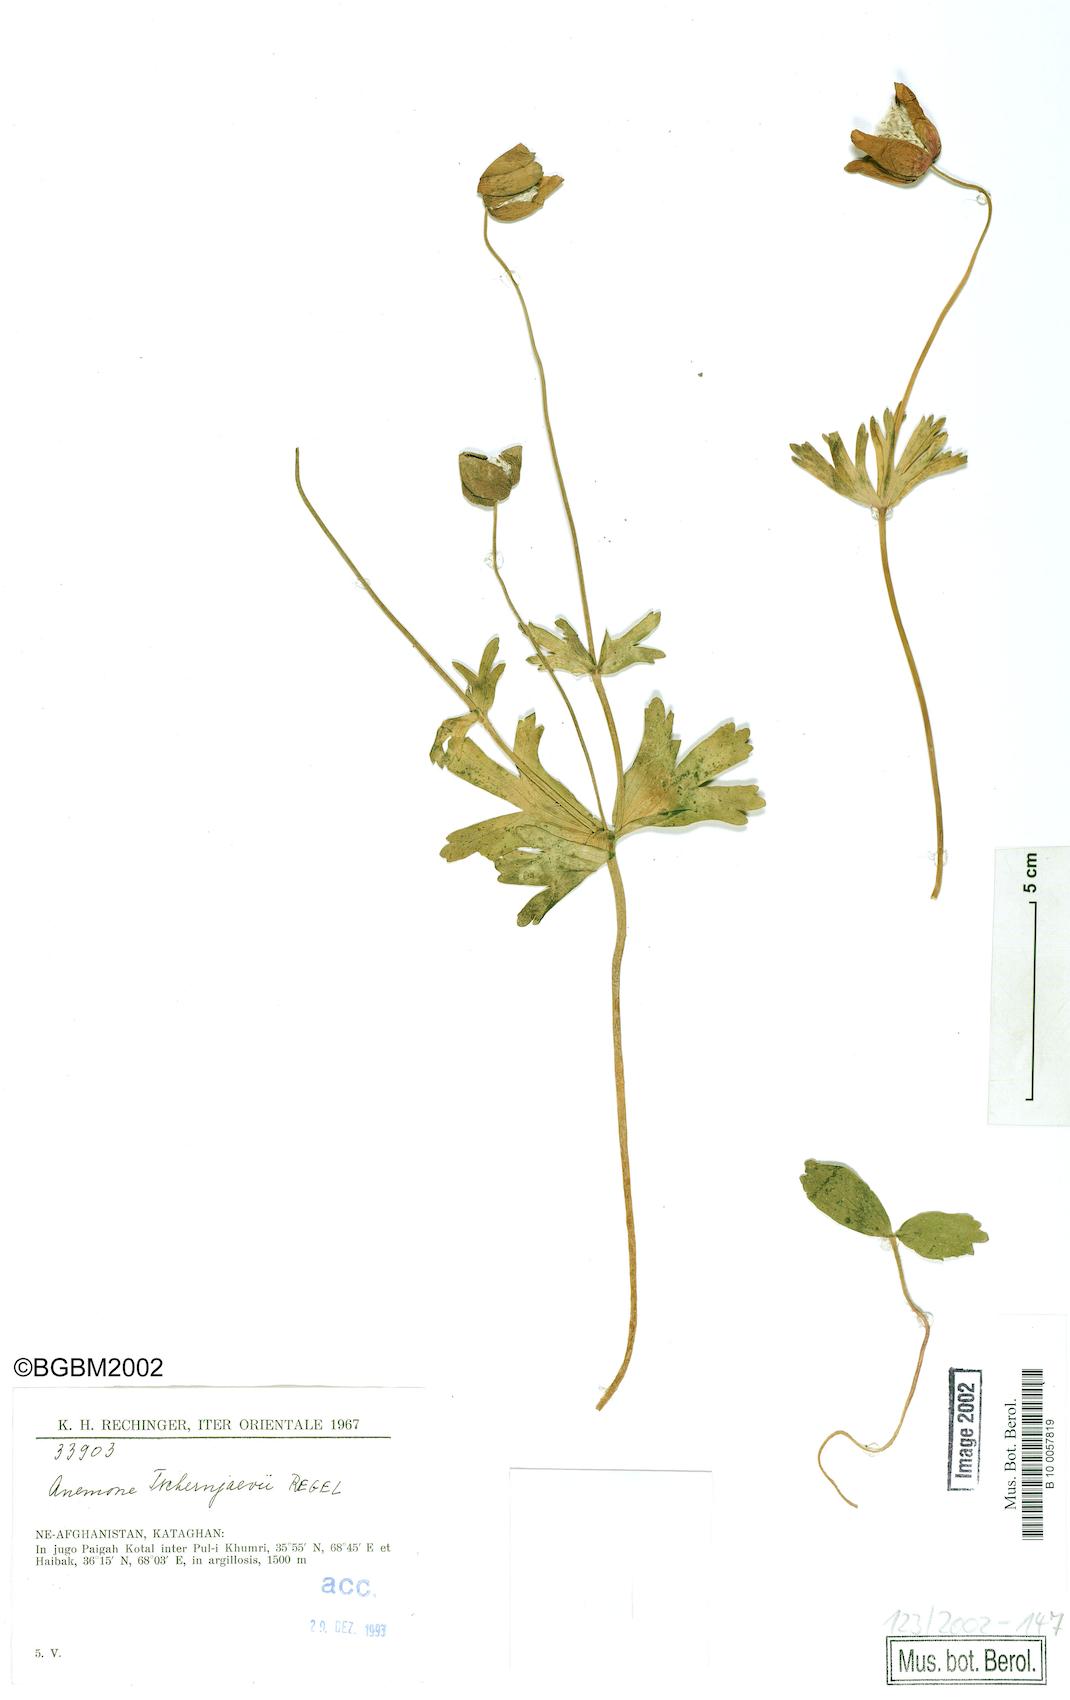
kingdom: Plantae
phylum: Tracheophyta
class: Magnoliopsida
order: Ranunculales
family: Ranunculaceae
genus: Anemone
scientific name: Anemone tschernaewii
